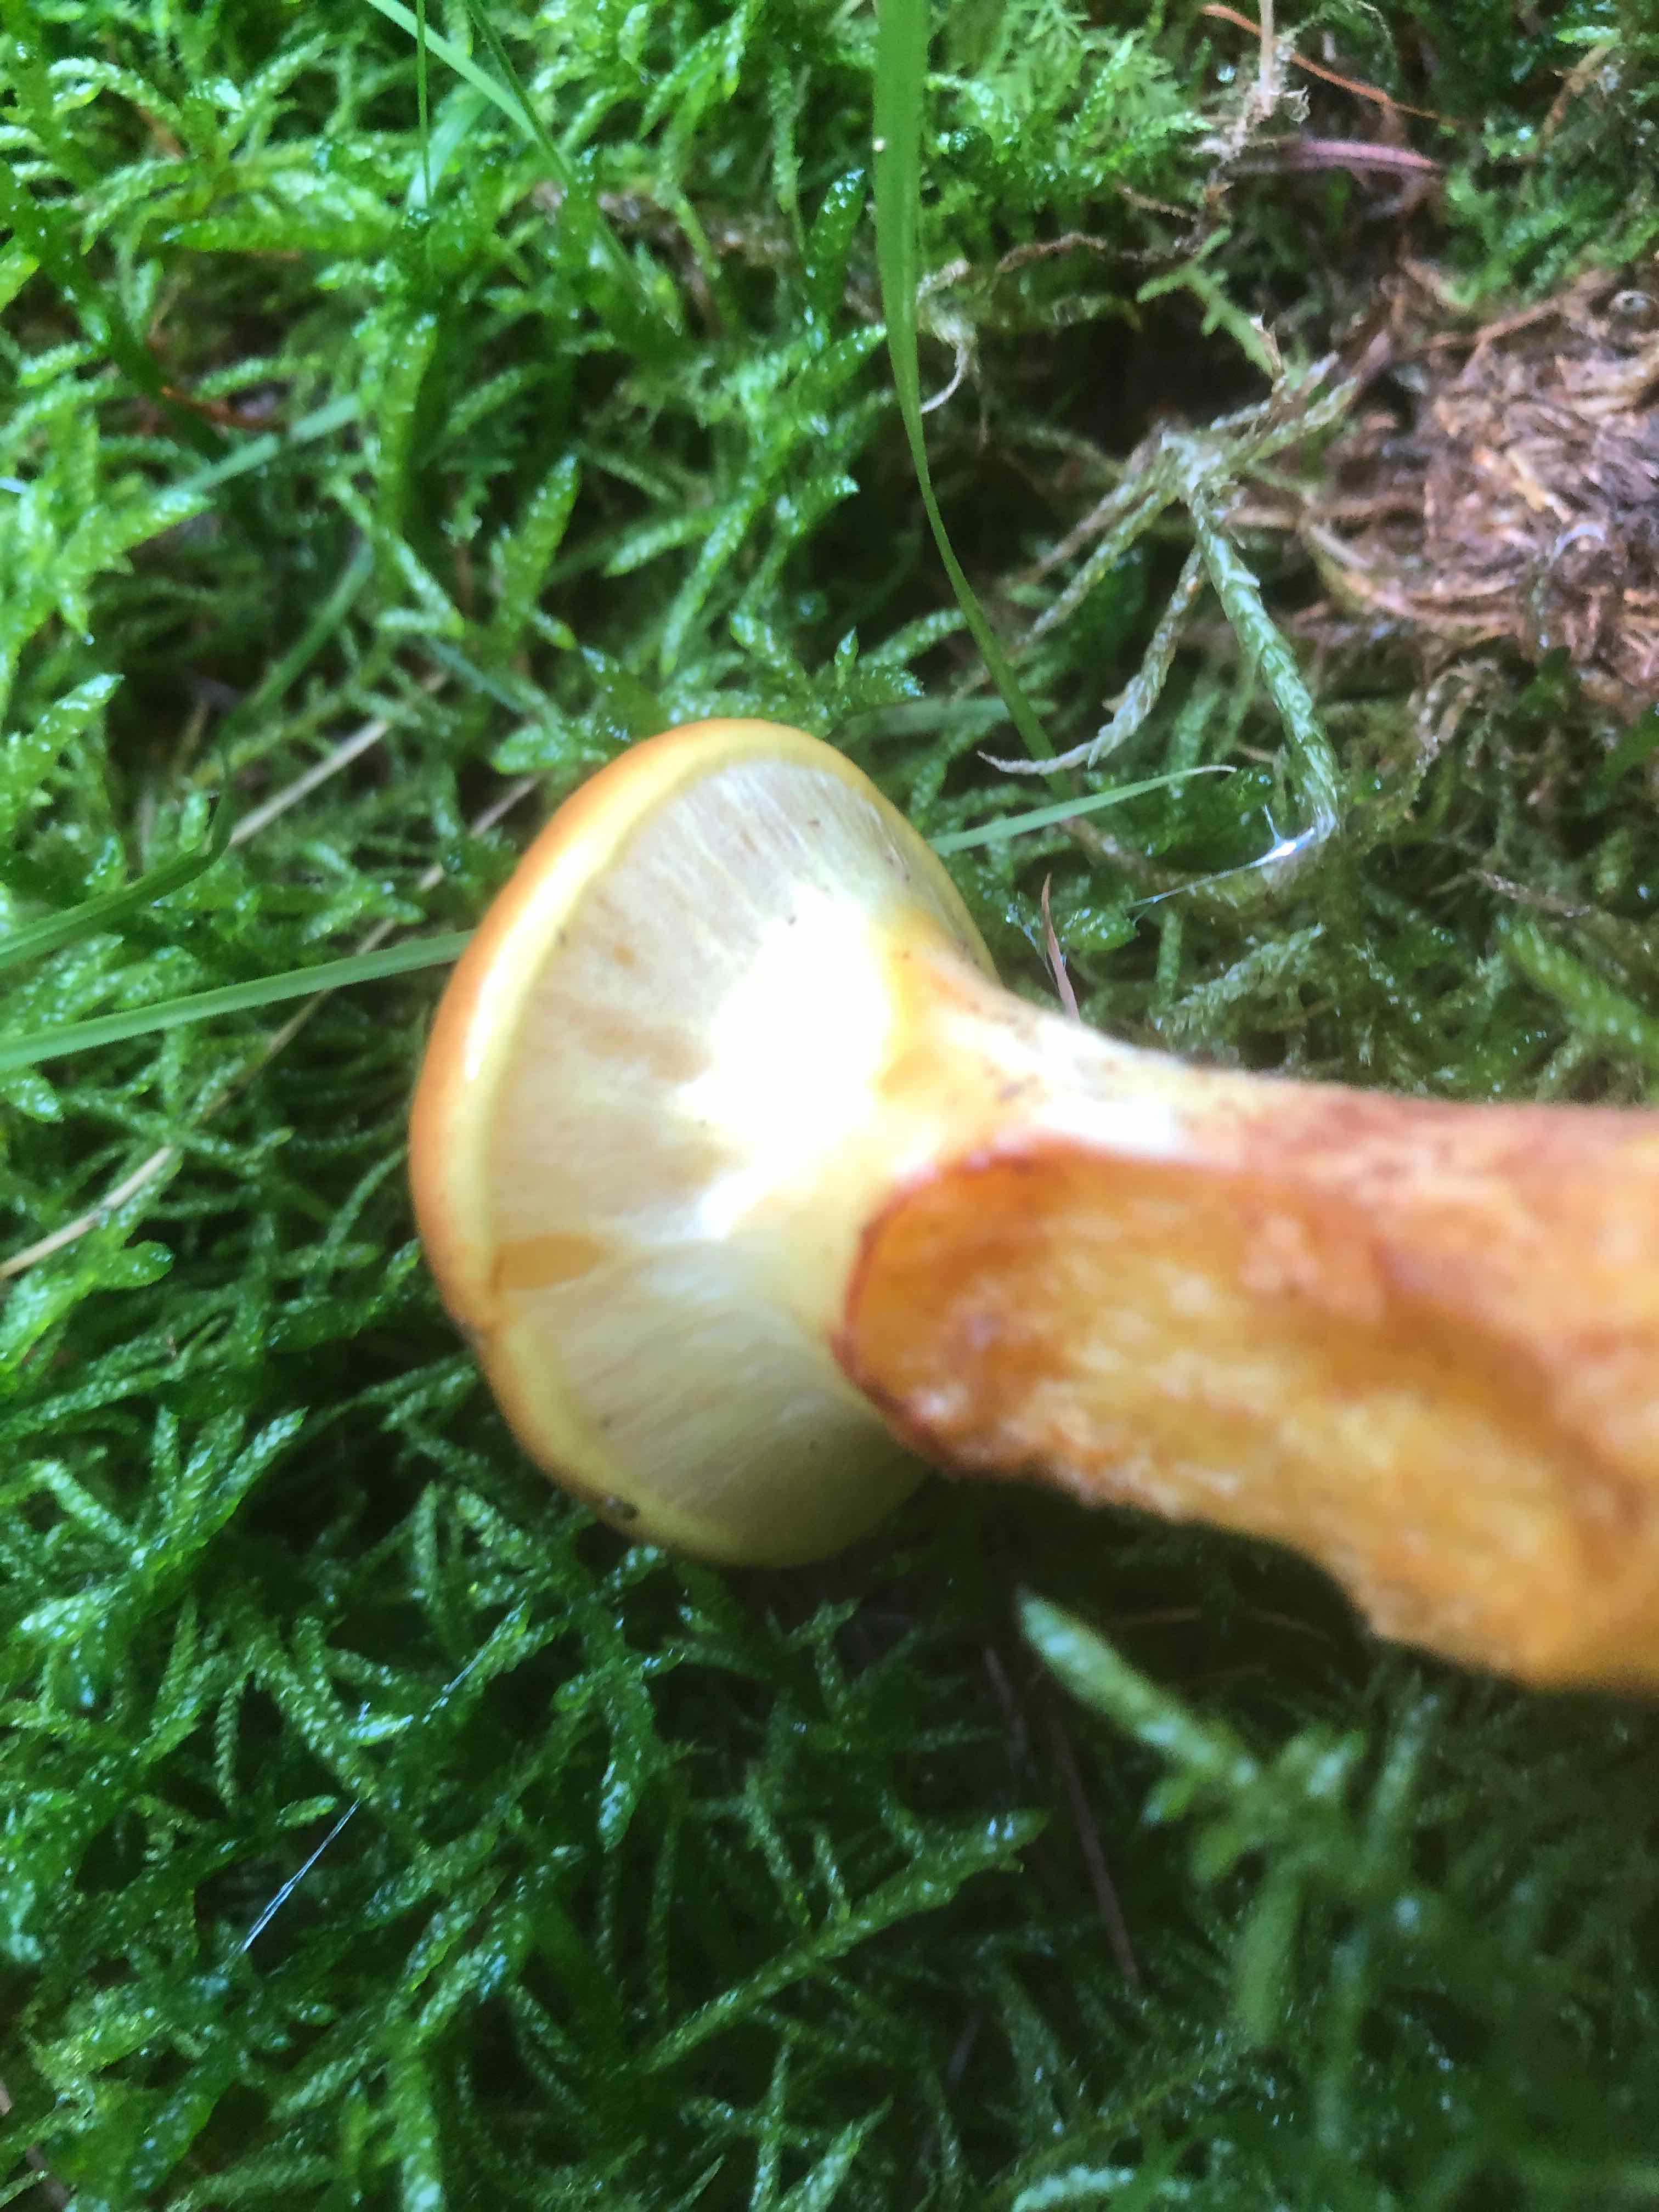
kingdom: Fungi
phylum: Basidiomycota
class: Agaricomycetes
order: Boletales
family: Suillaceae
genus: Suillus
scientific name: Suillus grevillei
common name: lærke-slimrørhat
